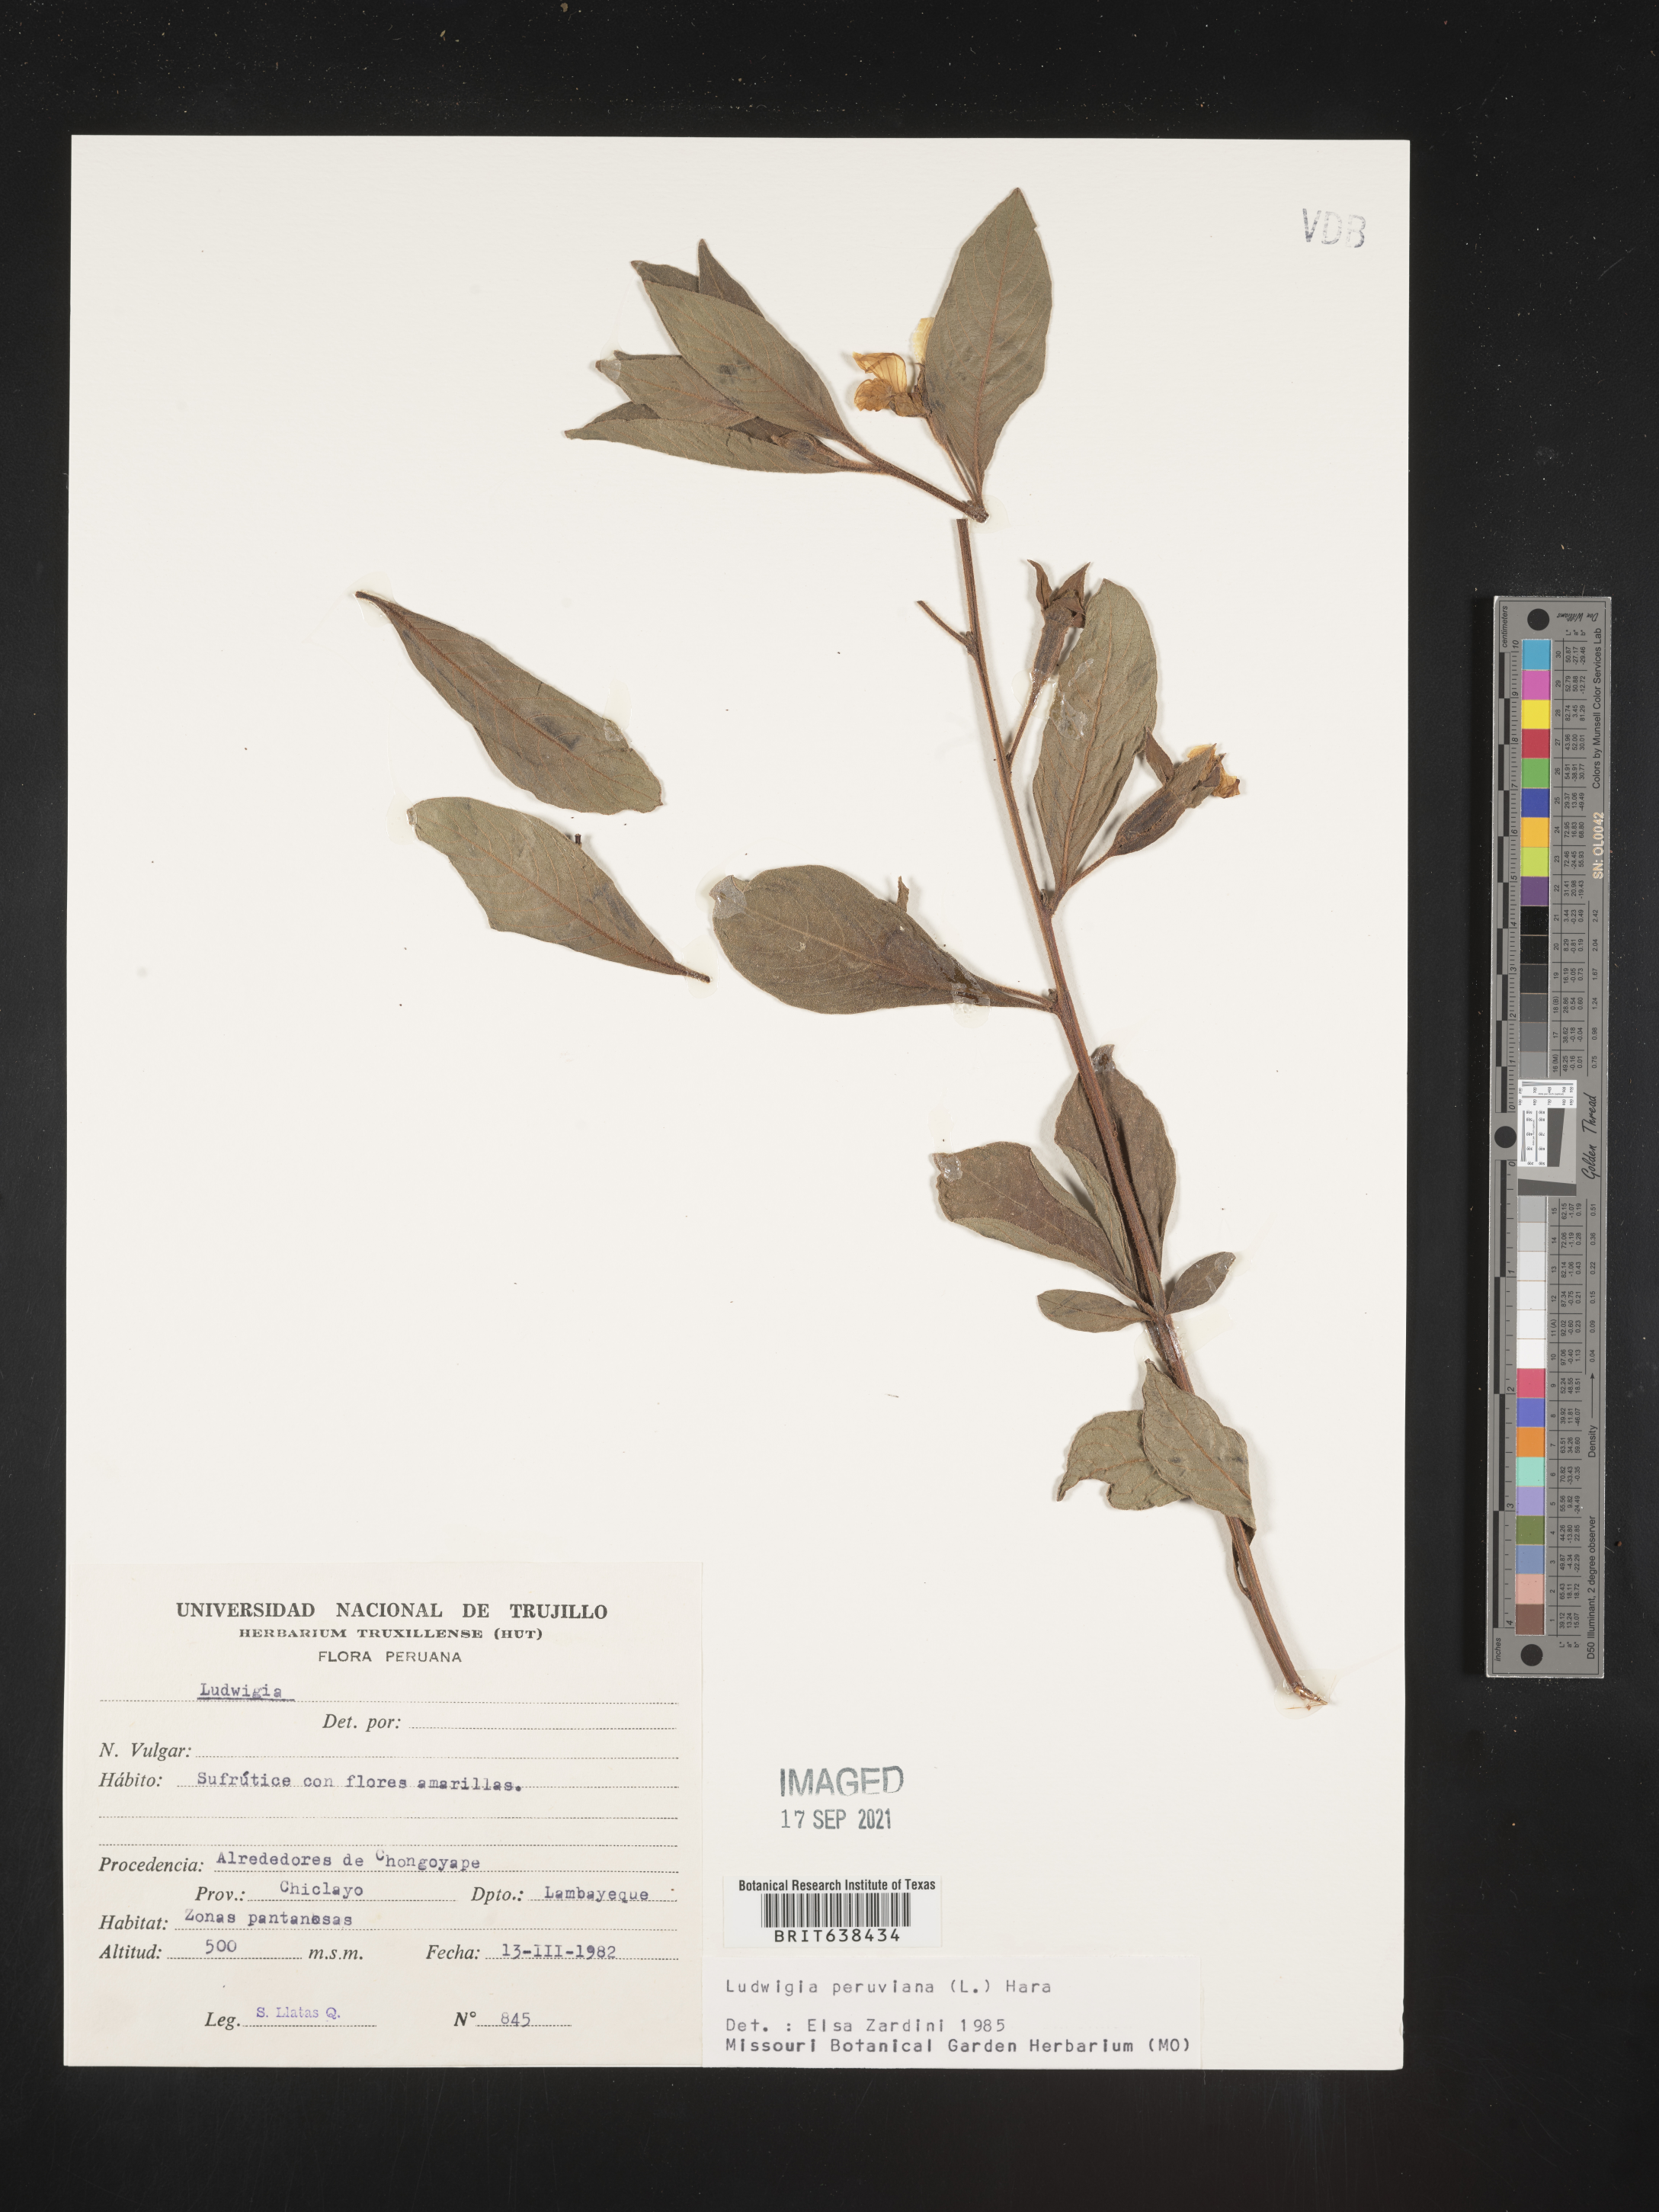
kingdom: Plantae
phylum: Tracheophyta
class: Magnoliopsida
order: Myrtales
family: Onagraceae
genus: Ludwigia
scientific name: Ludwigia
